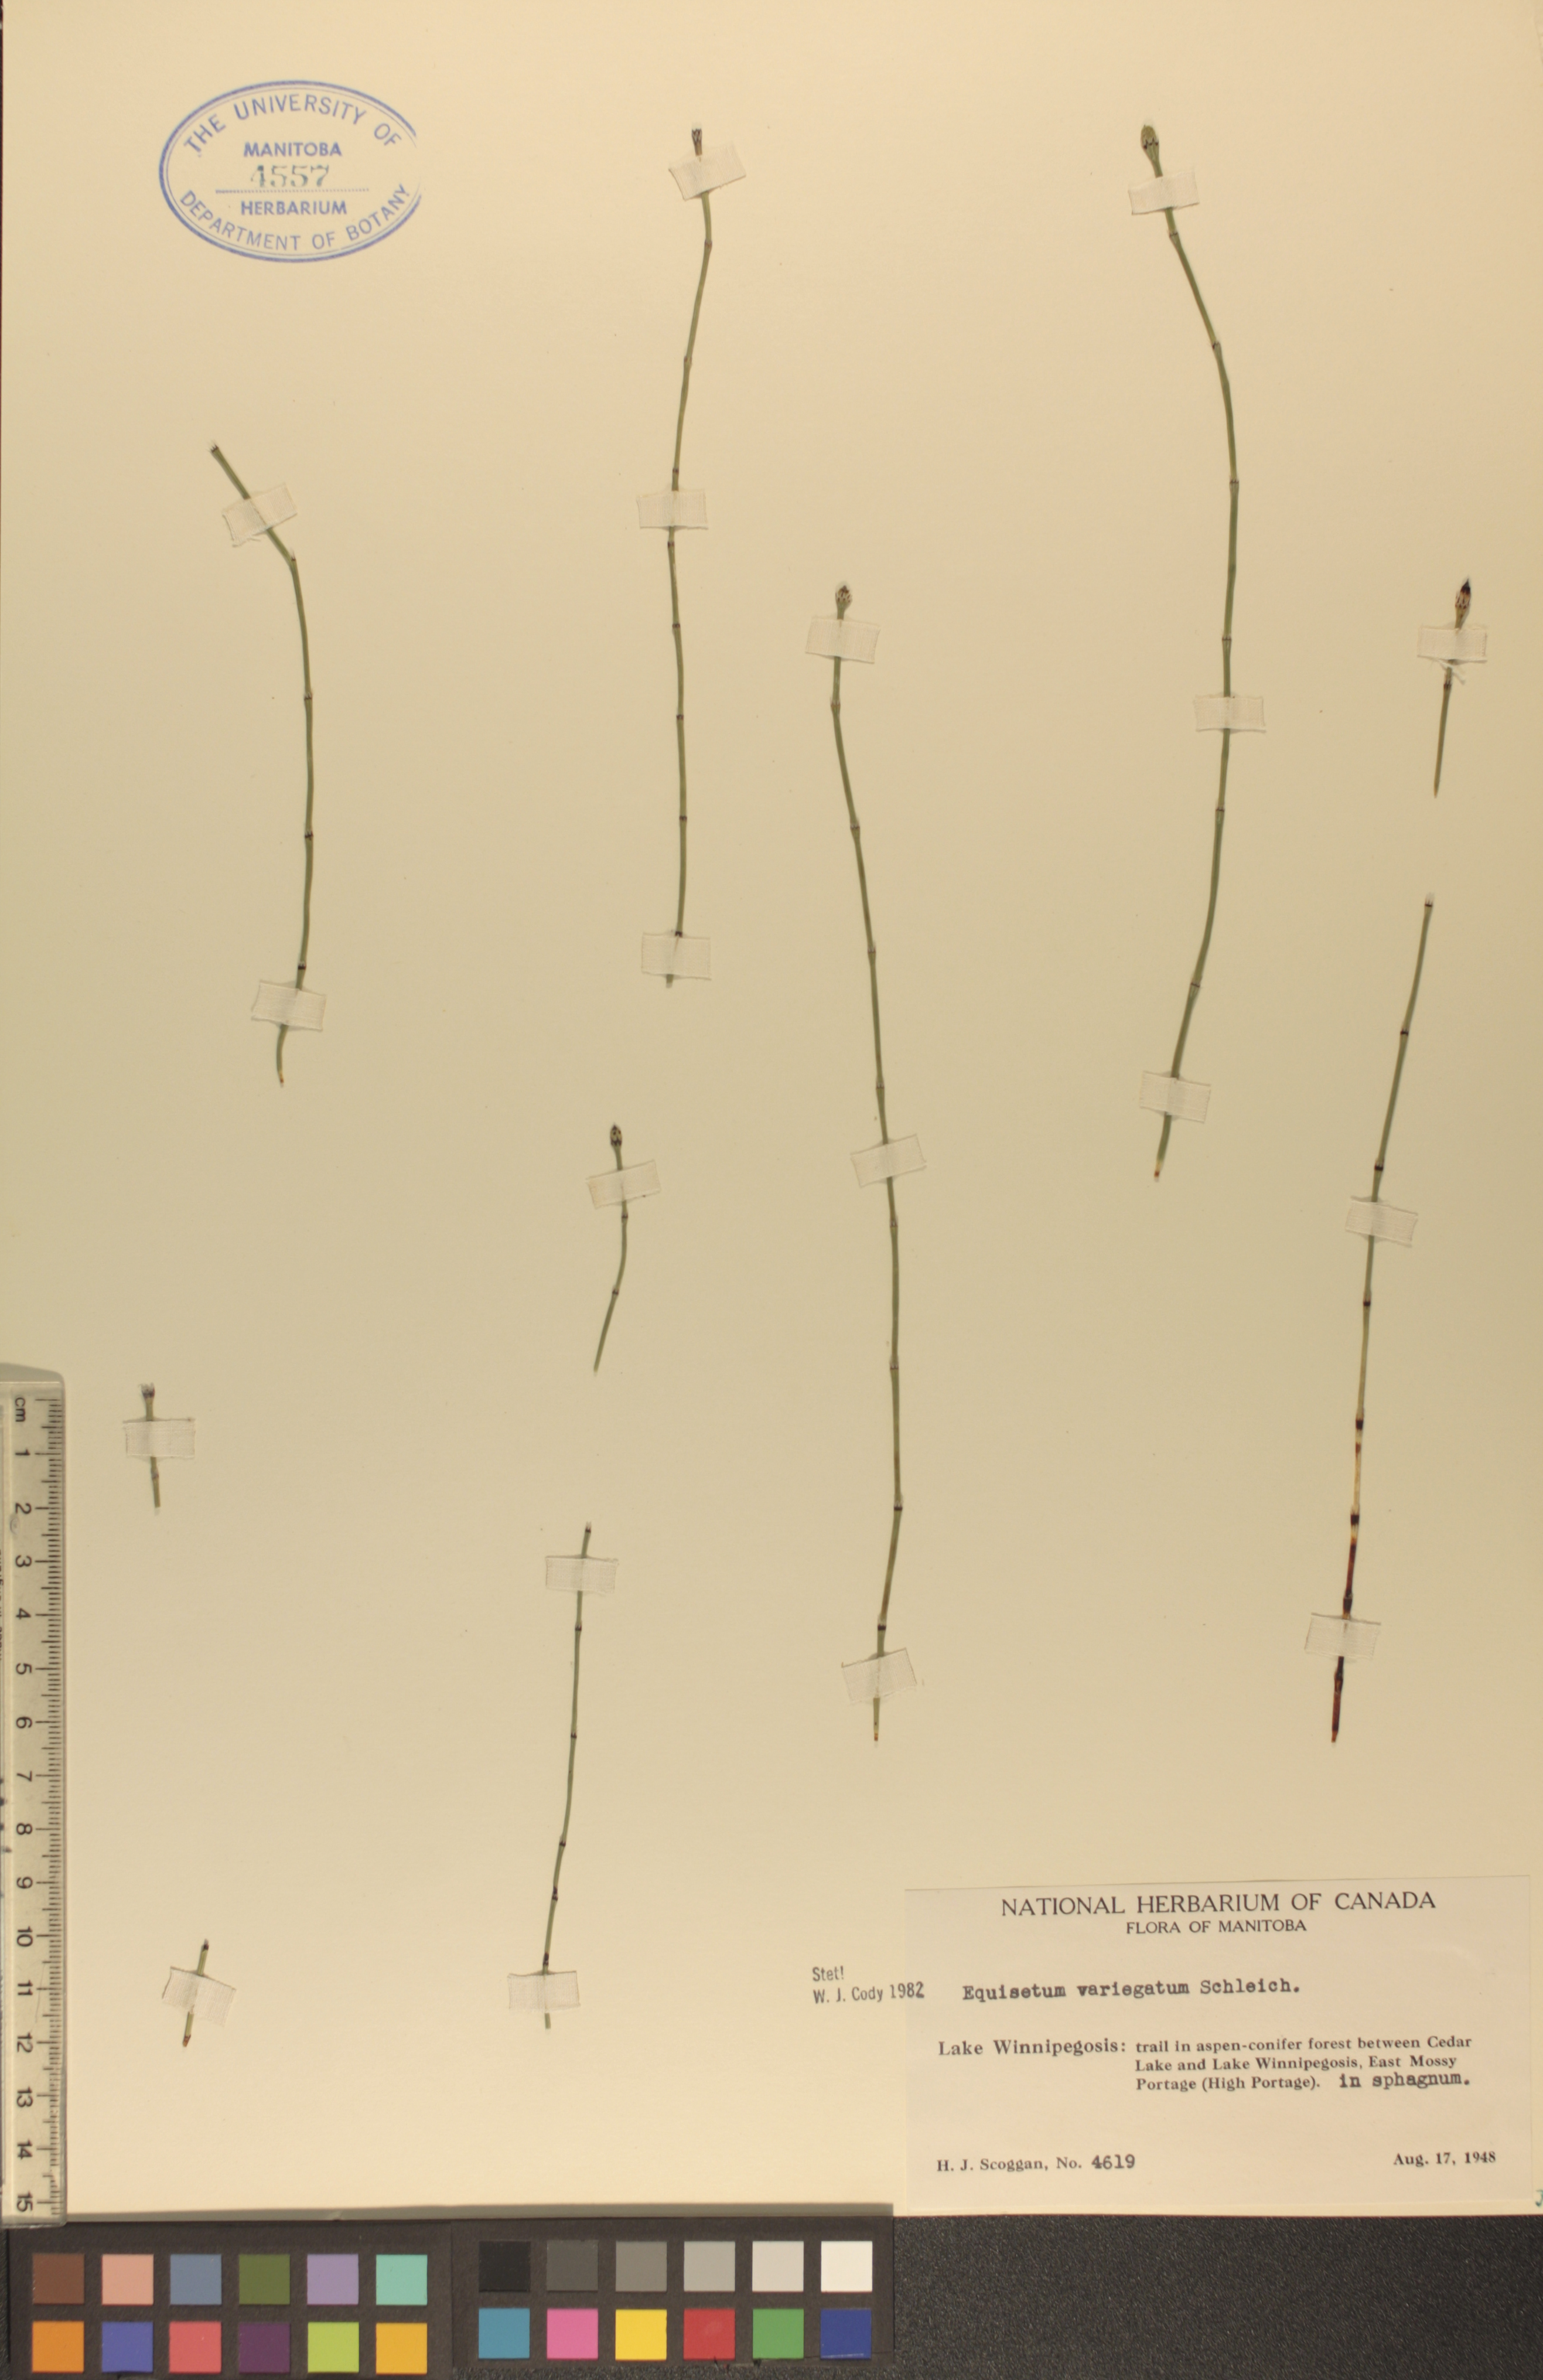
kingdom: Plantae
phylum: Tracheophyta
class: Polypodiopsida
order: Equisetales
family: Equisetaceae
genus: Equisetum
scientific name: Equisetum variegatum
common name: Variegated horsetail
